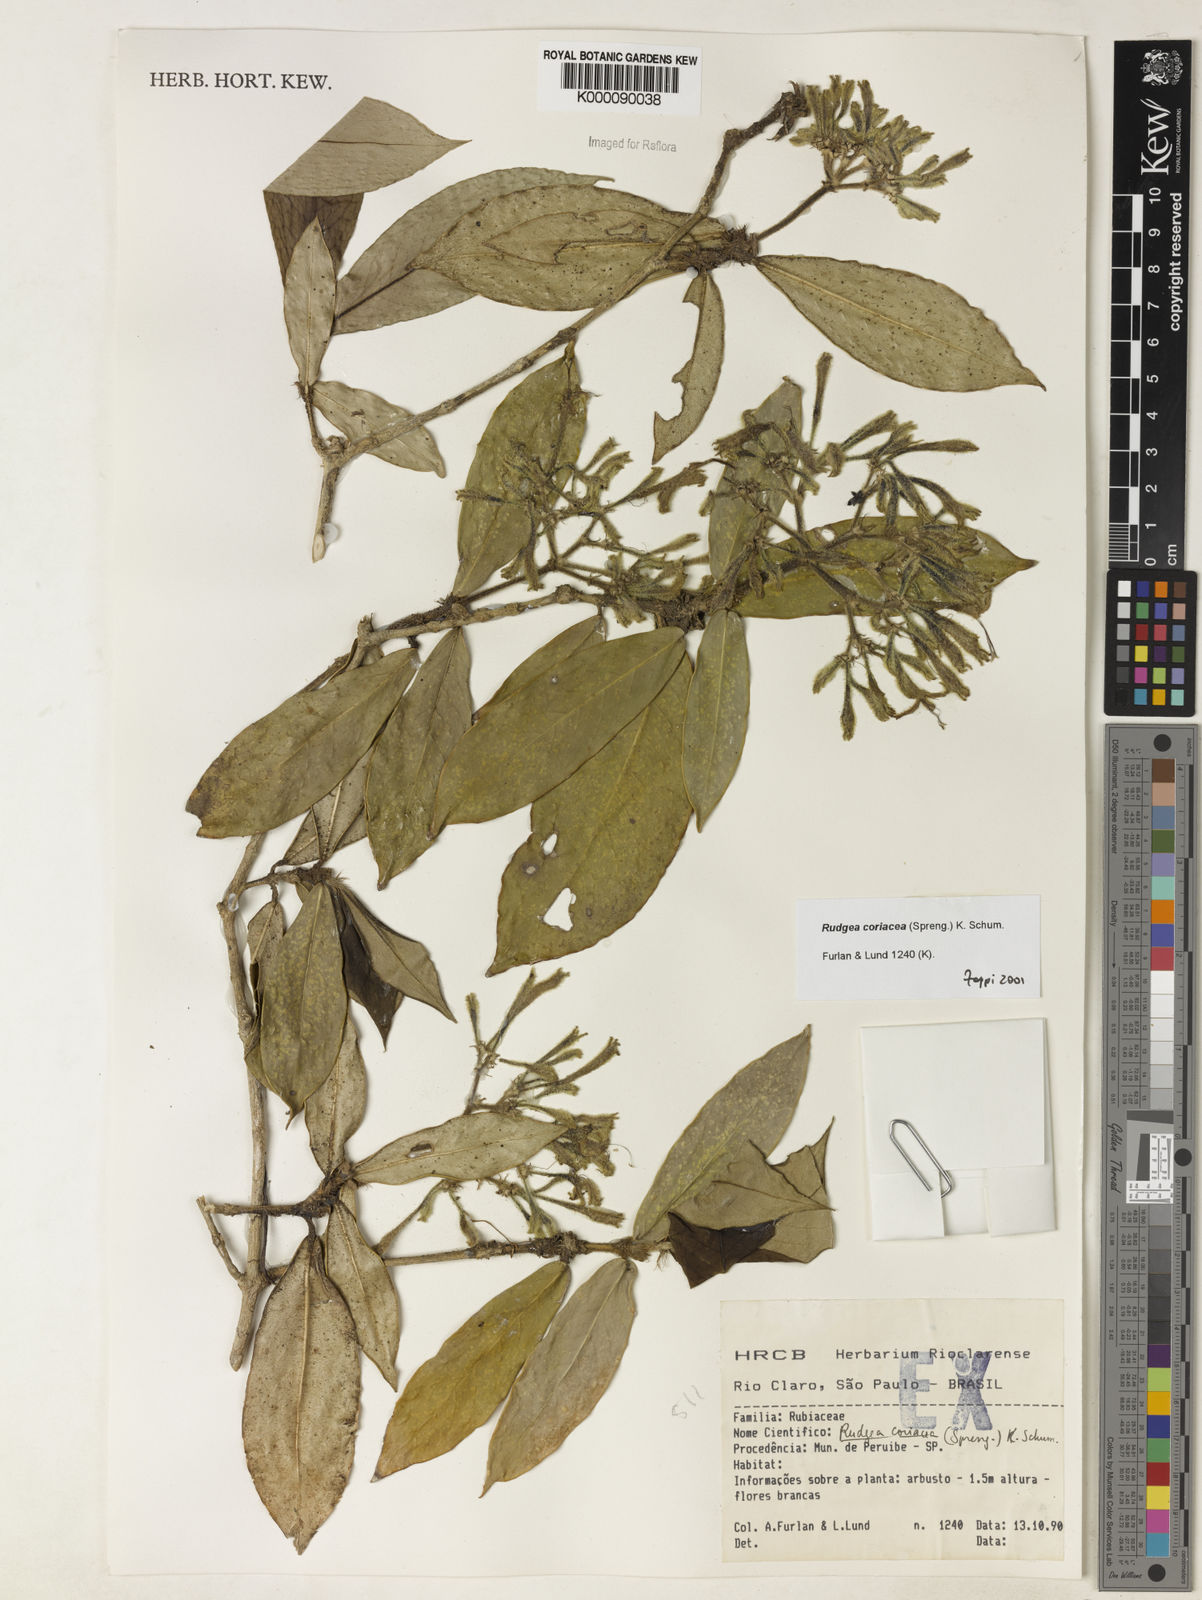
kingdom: Plantae
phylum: Tracheophyta
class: Magnoliopsida
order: Gentianales
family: Rubiaceae
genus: Rudgea
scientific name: Rudgea coriacea
